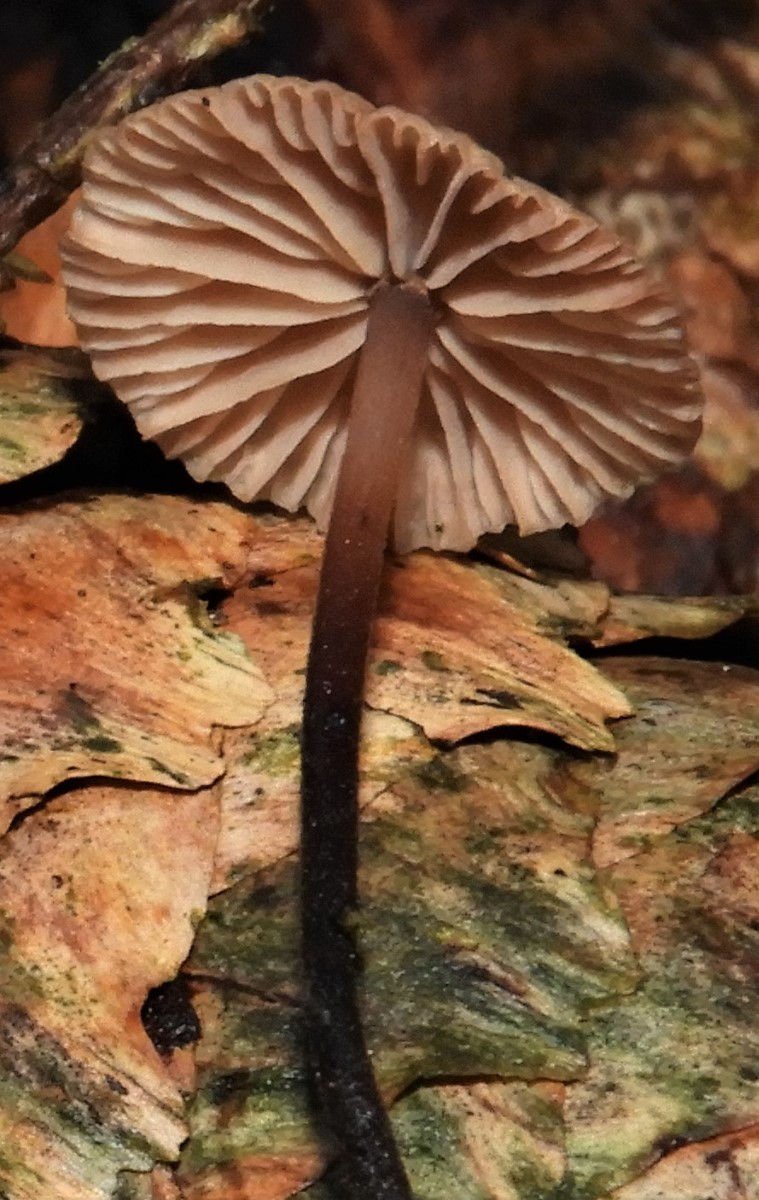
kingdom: Fungi
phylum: Basidiomycota
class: Agaricomycetes
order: Agaricales
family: Omphalotaceae
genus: Paragymnopus
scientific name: Paragymnopus perforans
